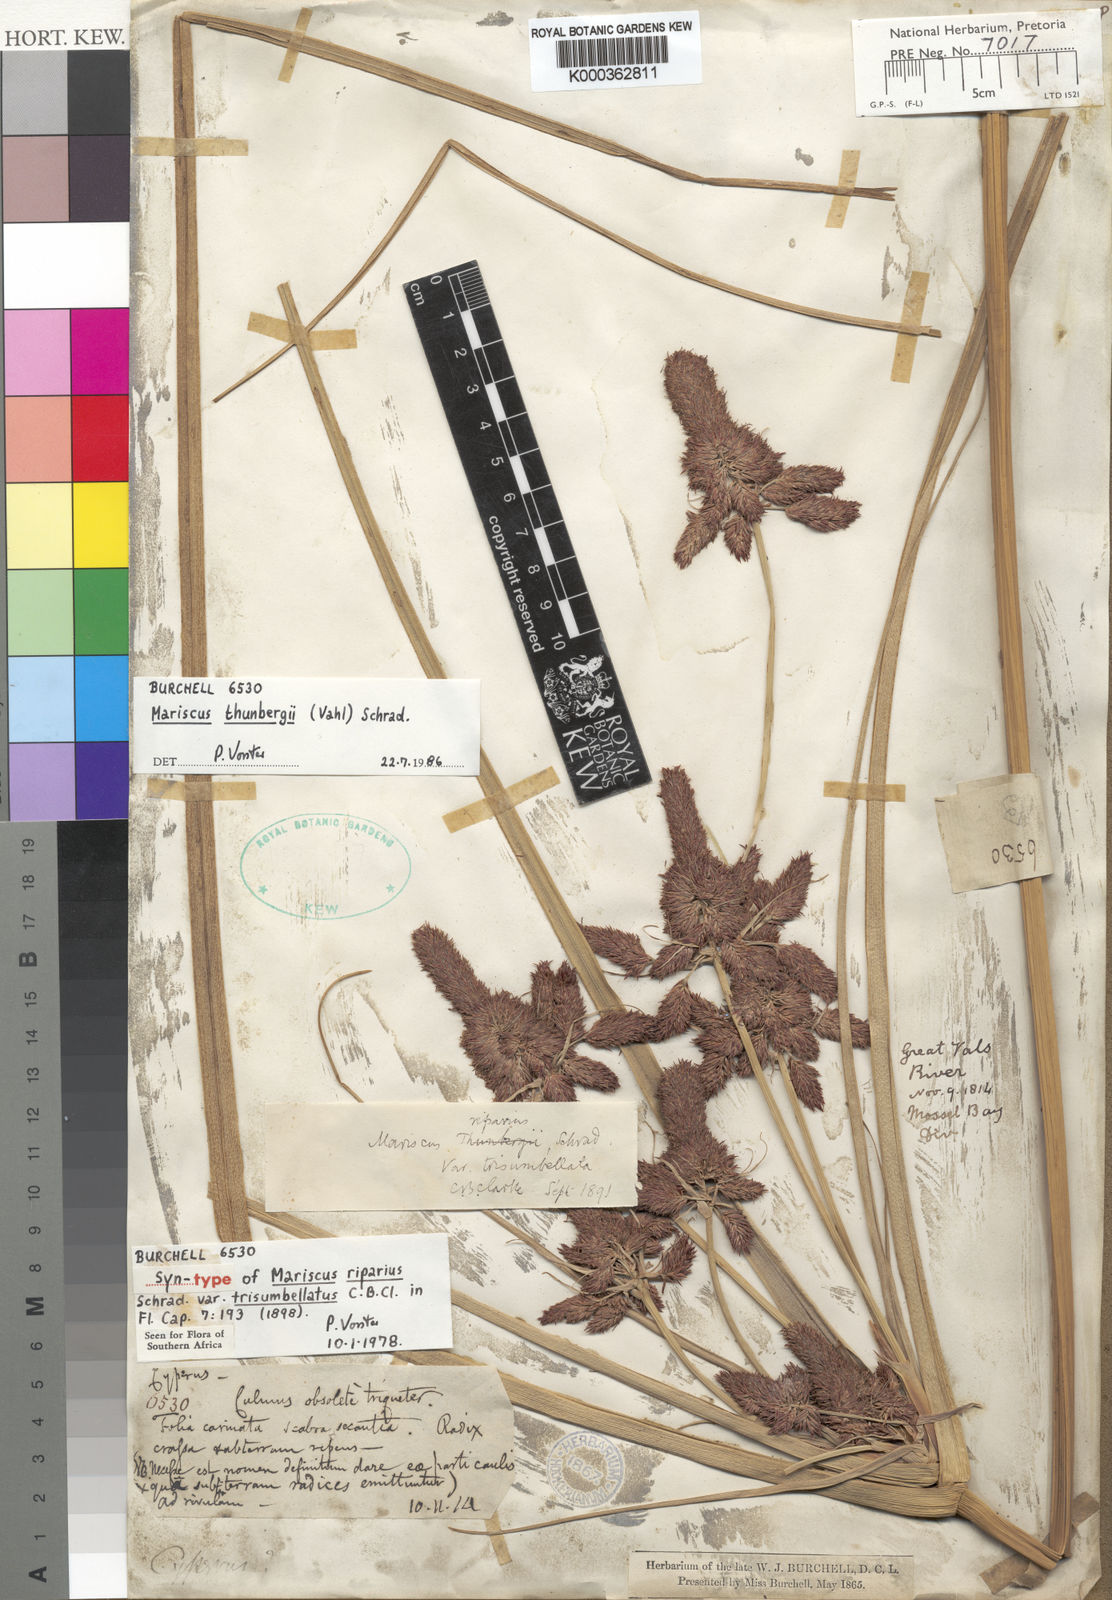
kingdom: Plantae
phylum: Tracheophyta
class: Liliopsida
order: Poales
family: Cyperaceae
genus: Cyperus
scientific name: Cyperus thunbergii
